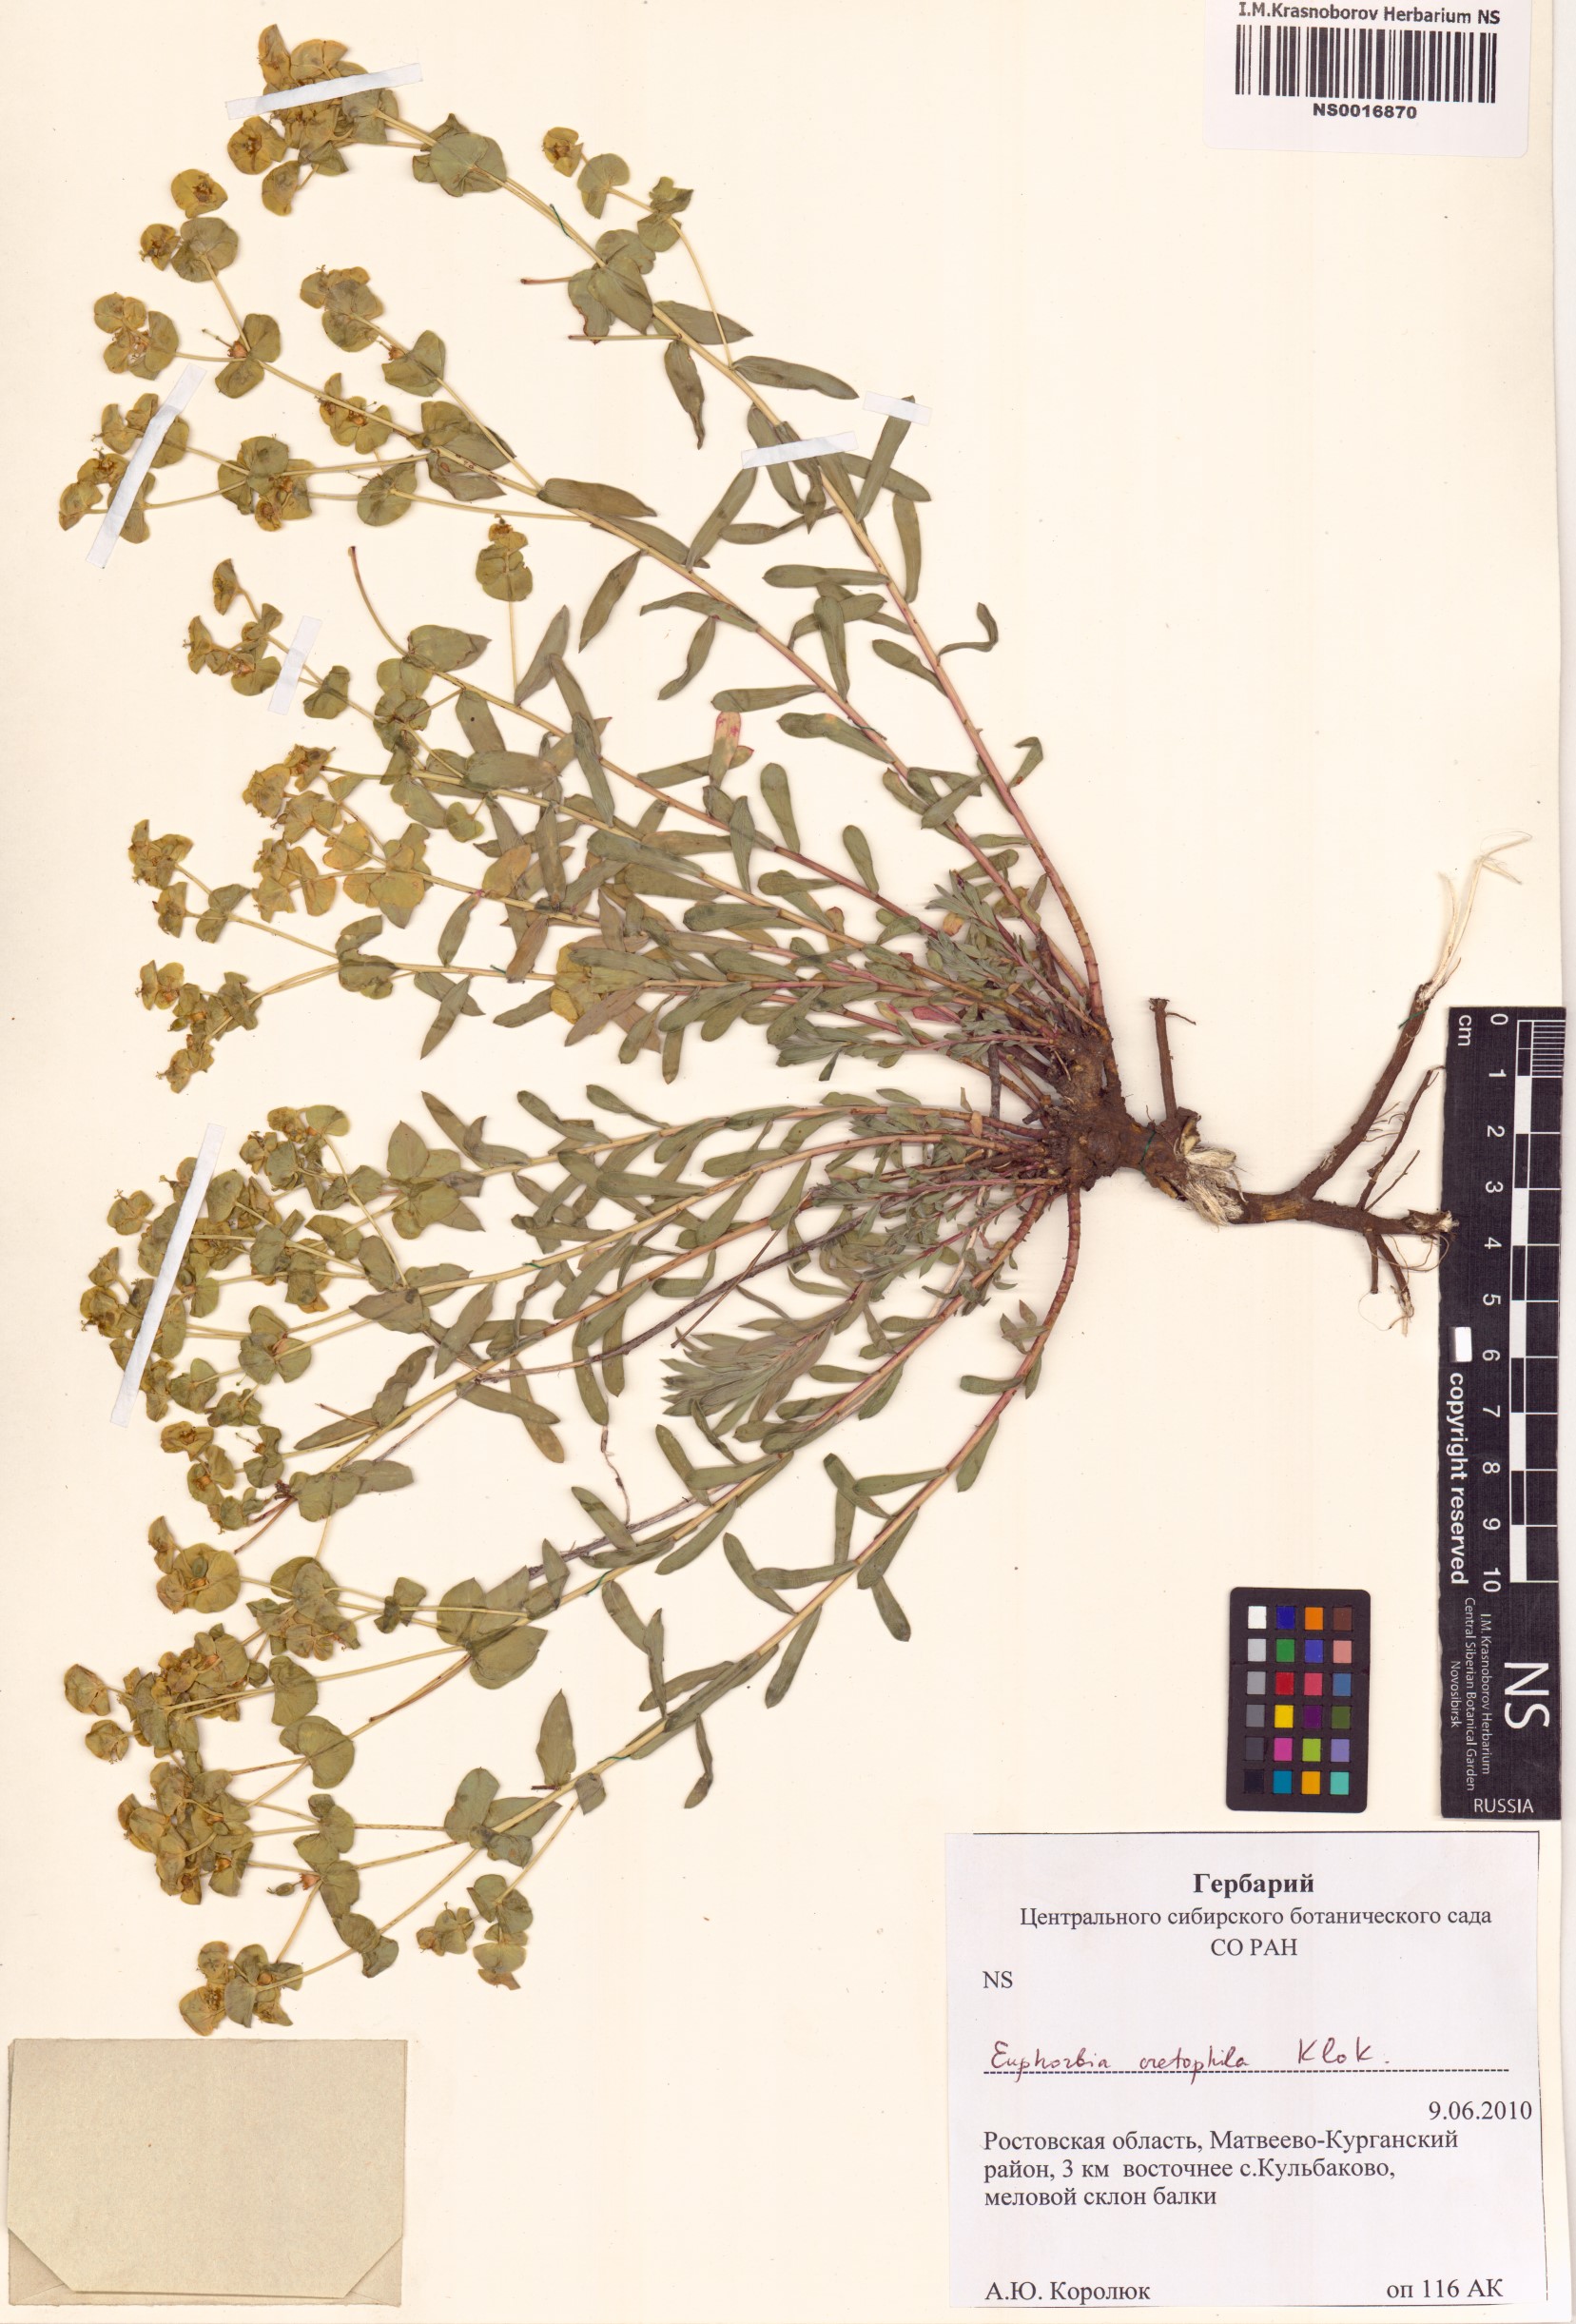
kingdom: Plantae
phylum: Tracheophyta
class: Magnoliopsida
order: Malpighiales
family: Euphorbiaceae
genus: Euphorbia
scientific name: Euphorbia petrophila
